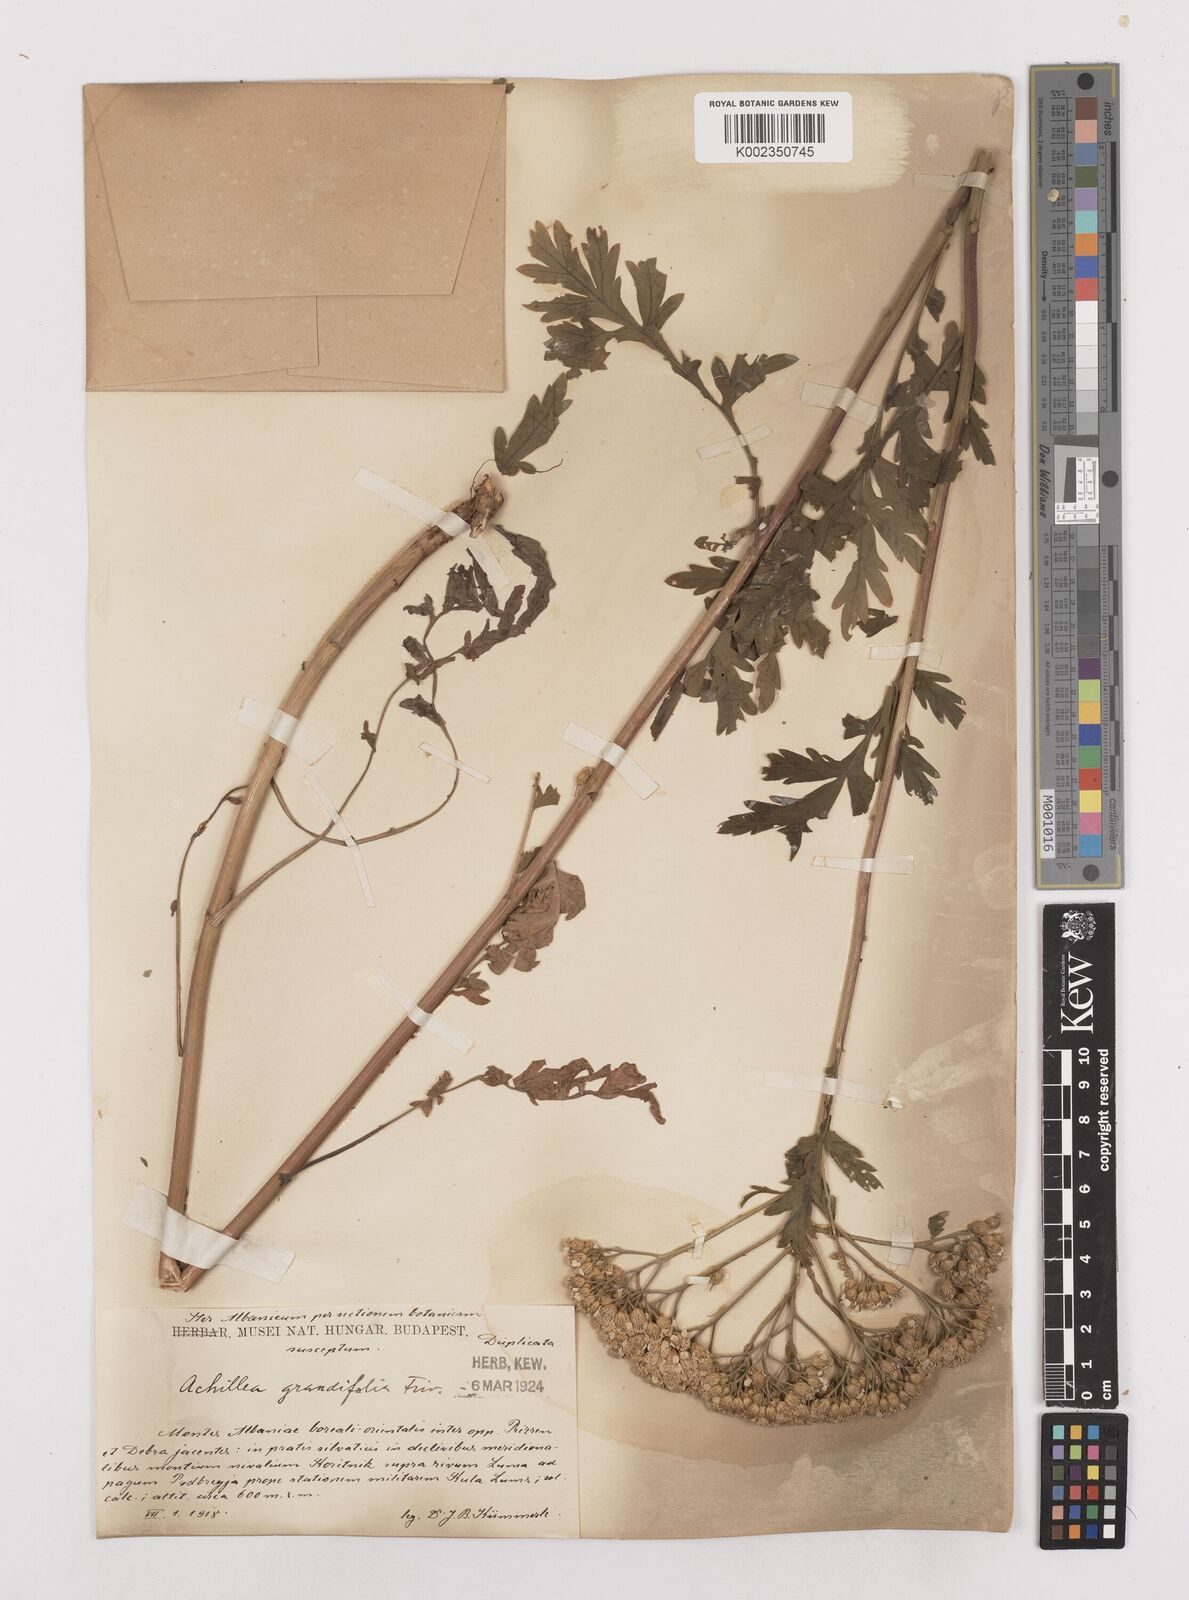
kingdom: Plantae
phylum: Tracheophyta
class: Magnoliopsida
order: Asterales
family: Asteraceae
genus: Achillea
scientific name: Achillea grandifolia
